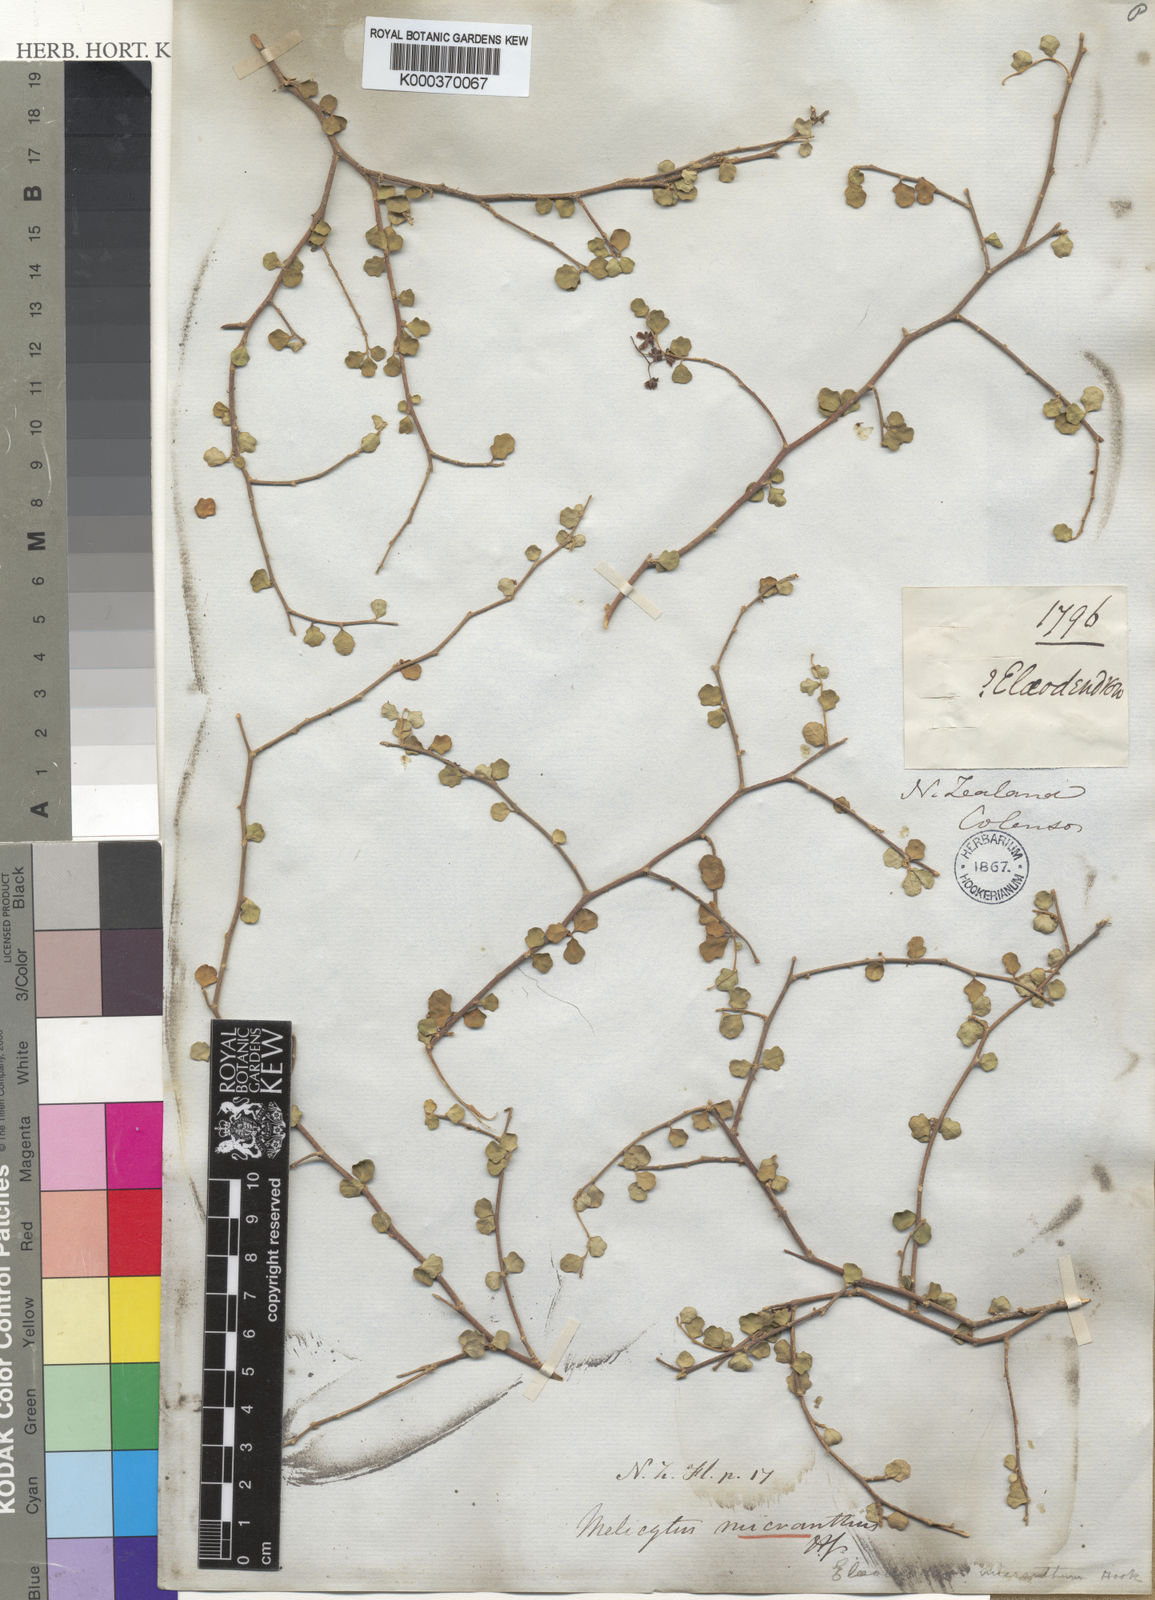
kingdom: Plantae
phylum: Tracheophyta
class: Magnoliopsida
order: Malpighiales
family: Violaceae
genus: Melicytus
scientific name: Melicytus micranthus
